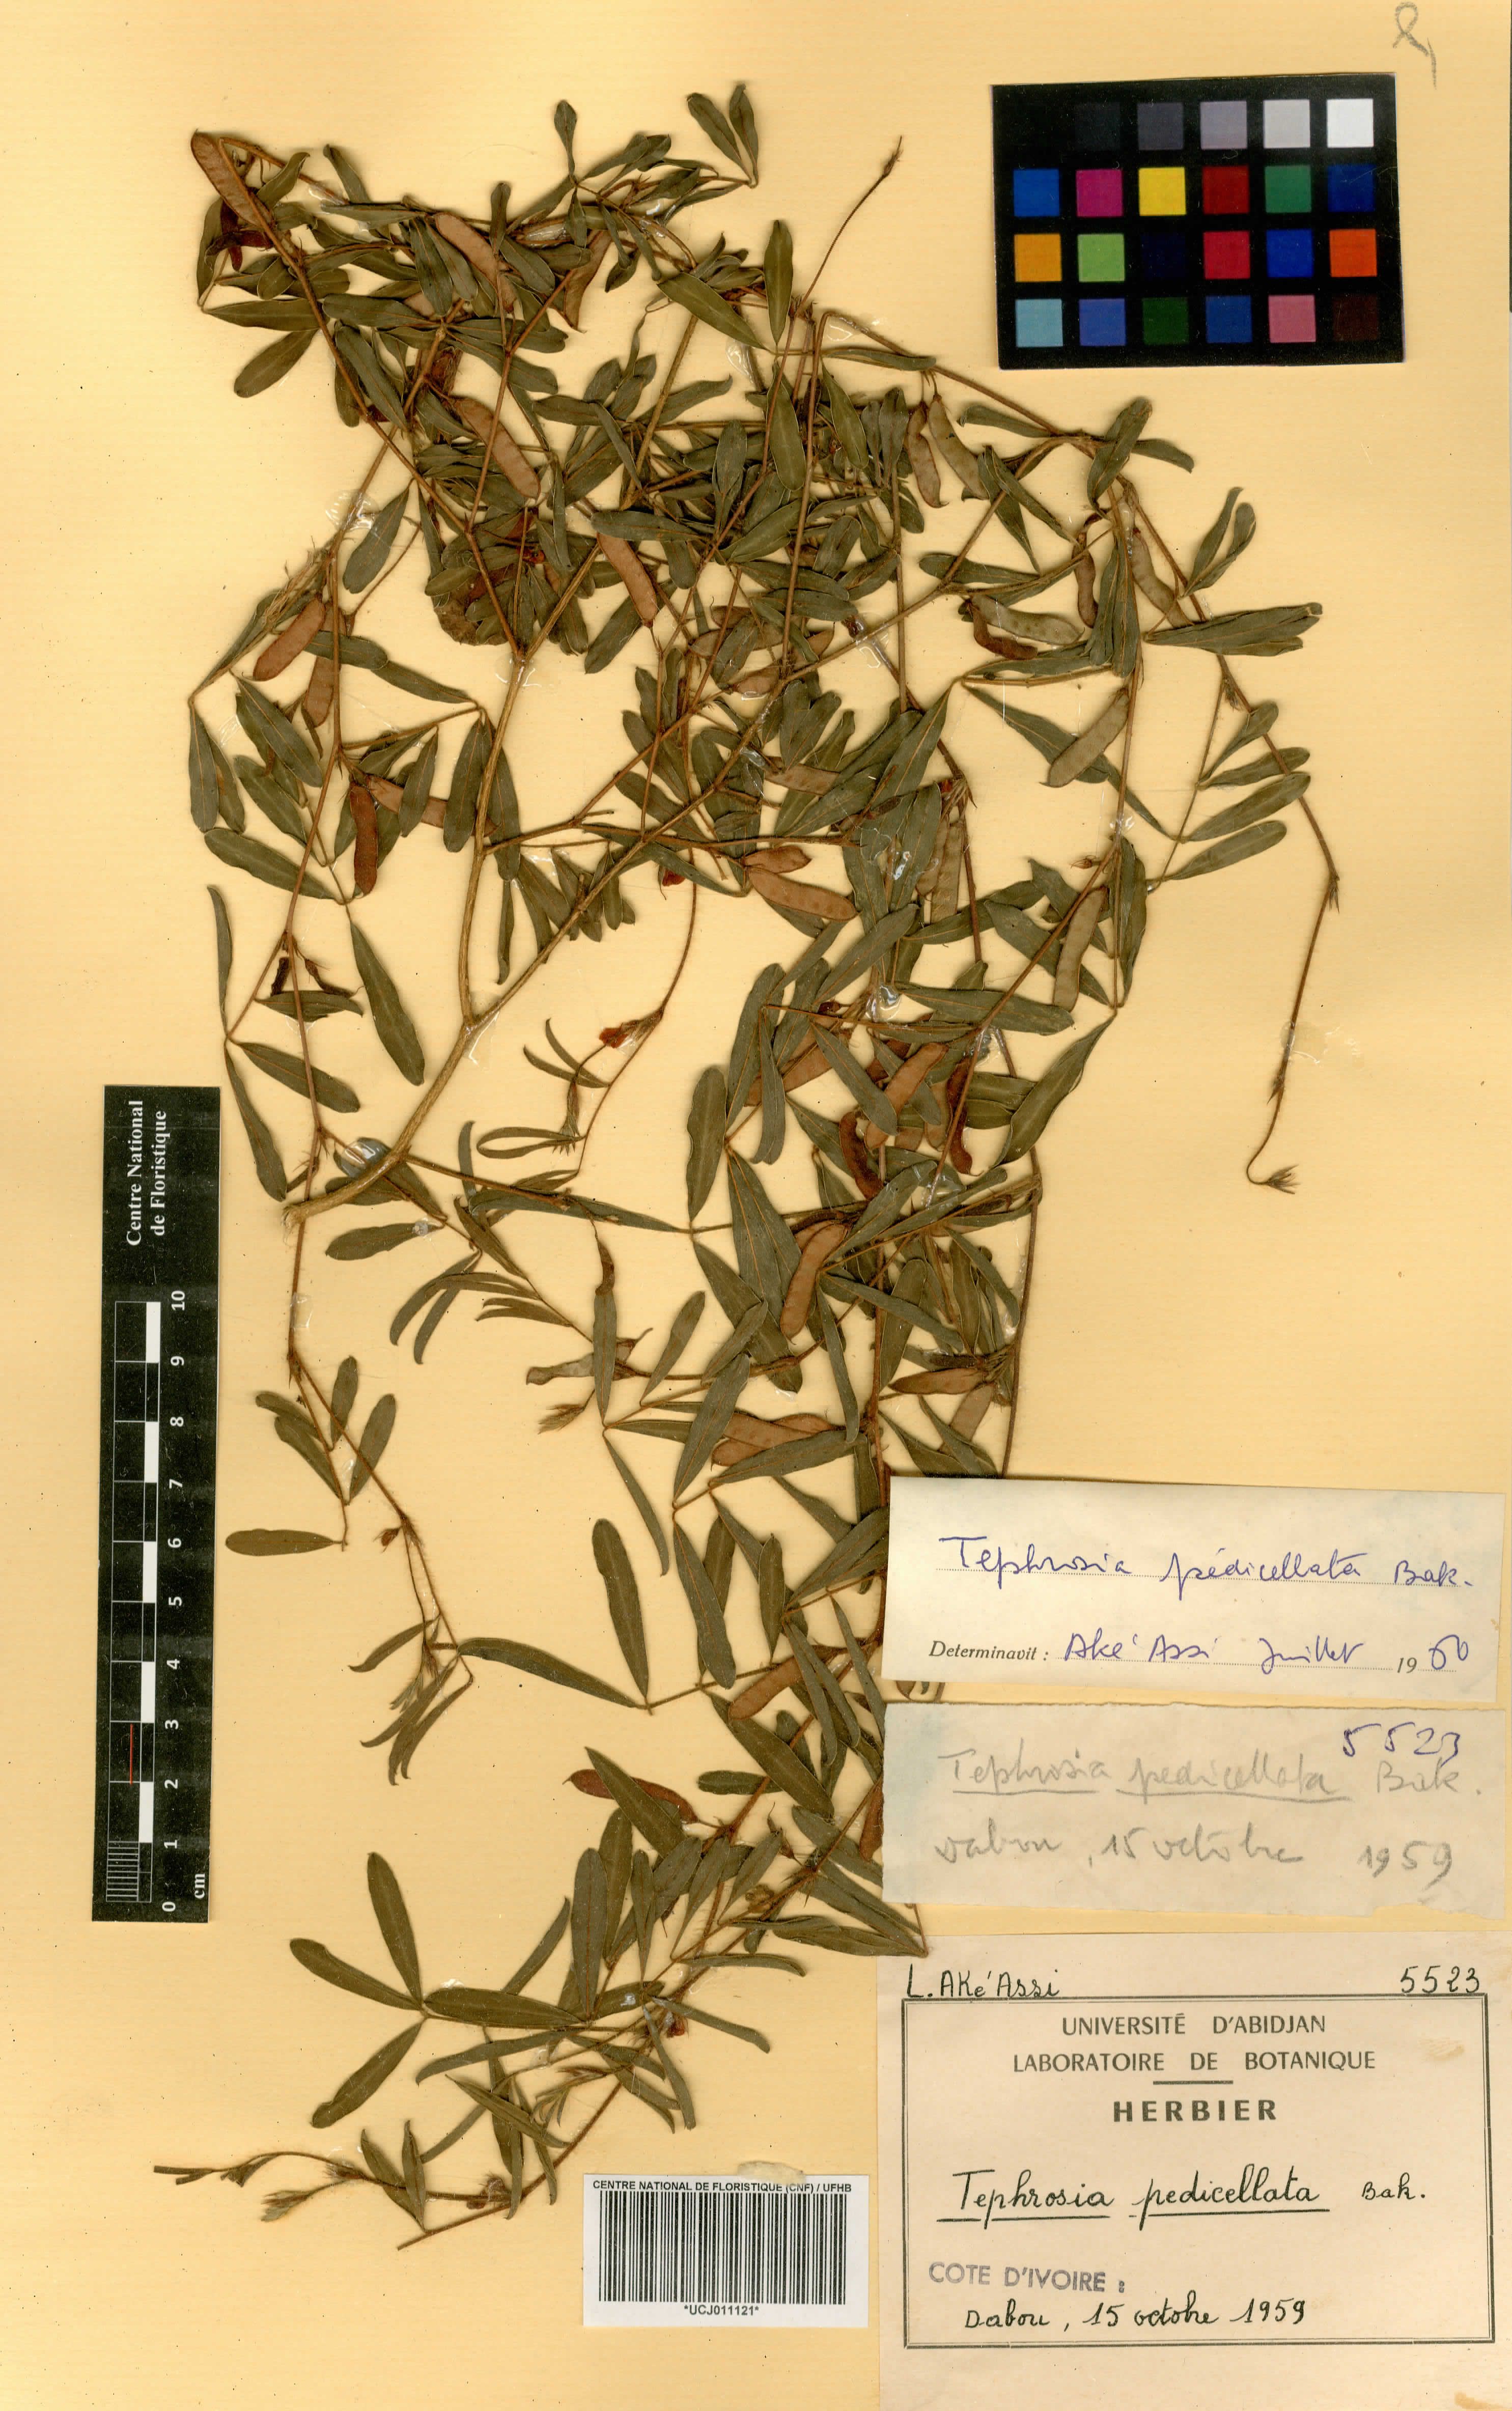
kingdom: Plantae
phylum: Tracheophyta
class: Magnoliopsida
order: Fabales
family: Fabaceae
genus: Tephrosia
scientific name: Tephrosia pedicellata
